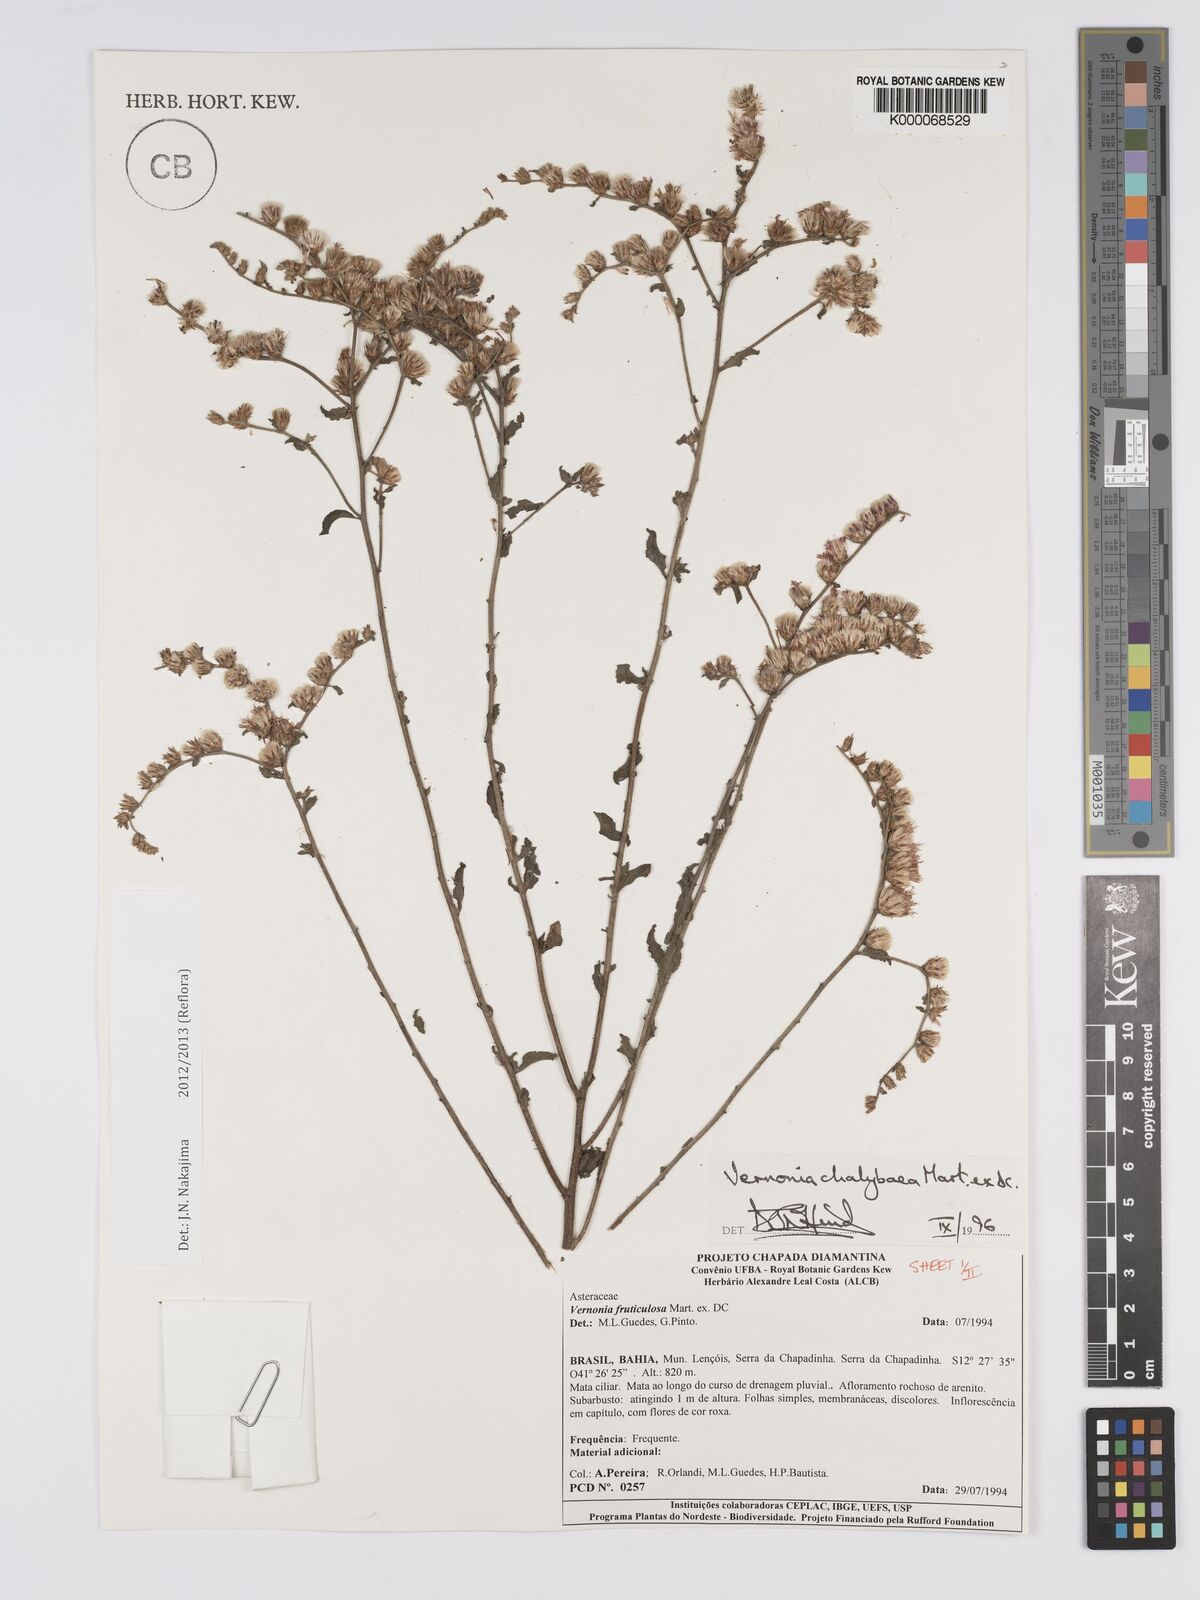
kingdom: Plantae
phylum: Tracheophyta
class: Magnoliopsida
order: Asterales
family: Asteraceae
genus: Lepidaploa
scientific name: Lepidaploa chalybaea
